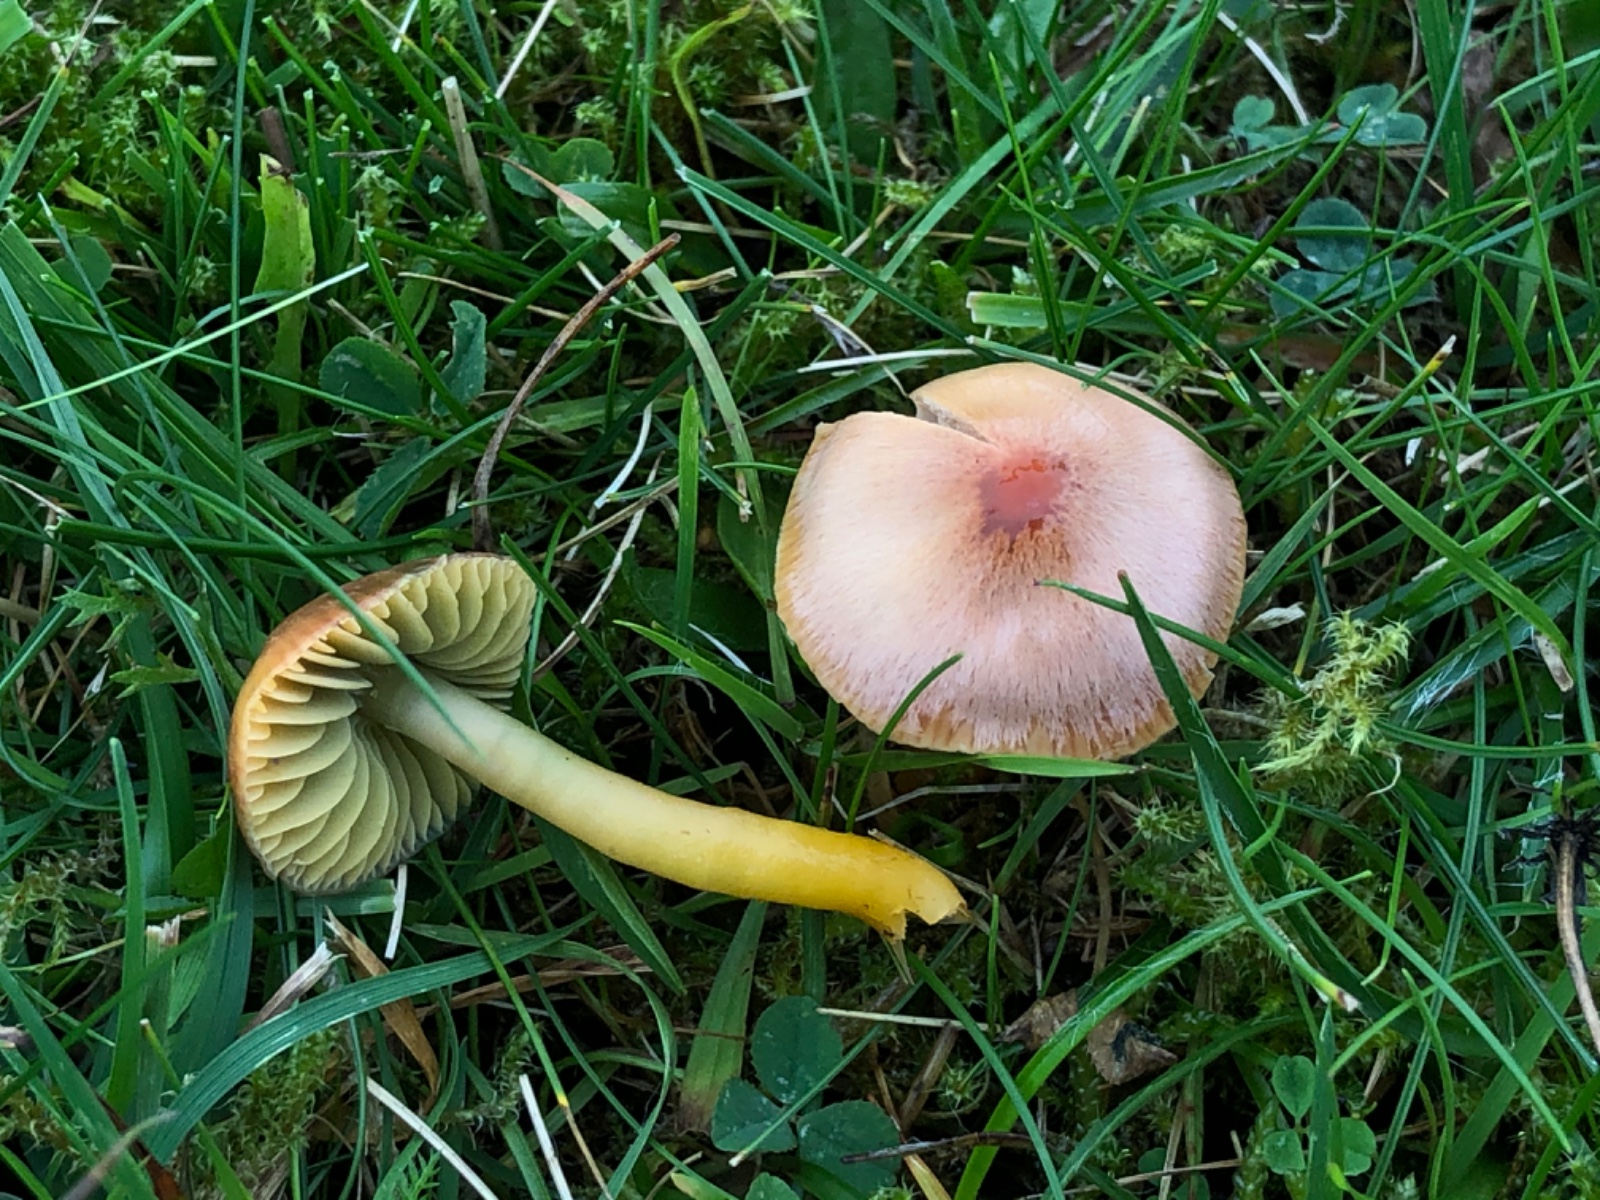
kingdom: Fungi
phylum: Basidiomycota
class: Agaricomycetes
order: Agaricales
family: Hygrophoraceae
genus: Gliophorus
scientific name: Gliophorus psittacinus
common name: papegøje-vokshat
